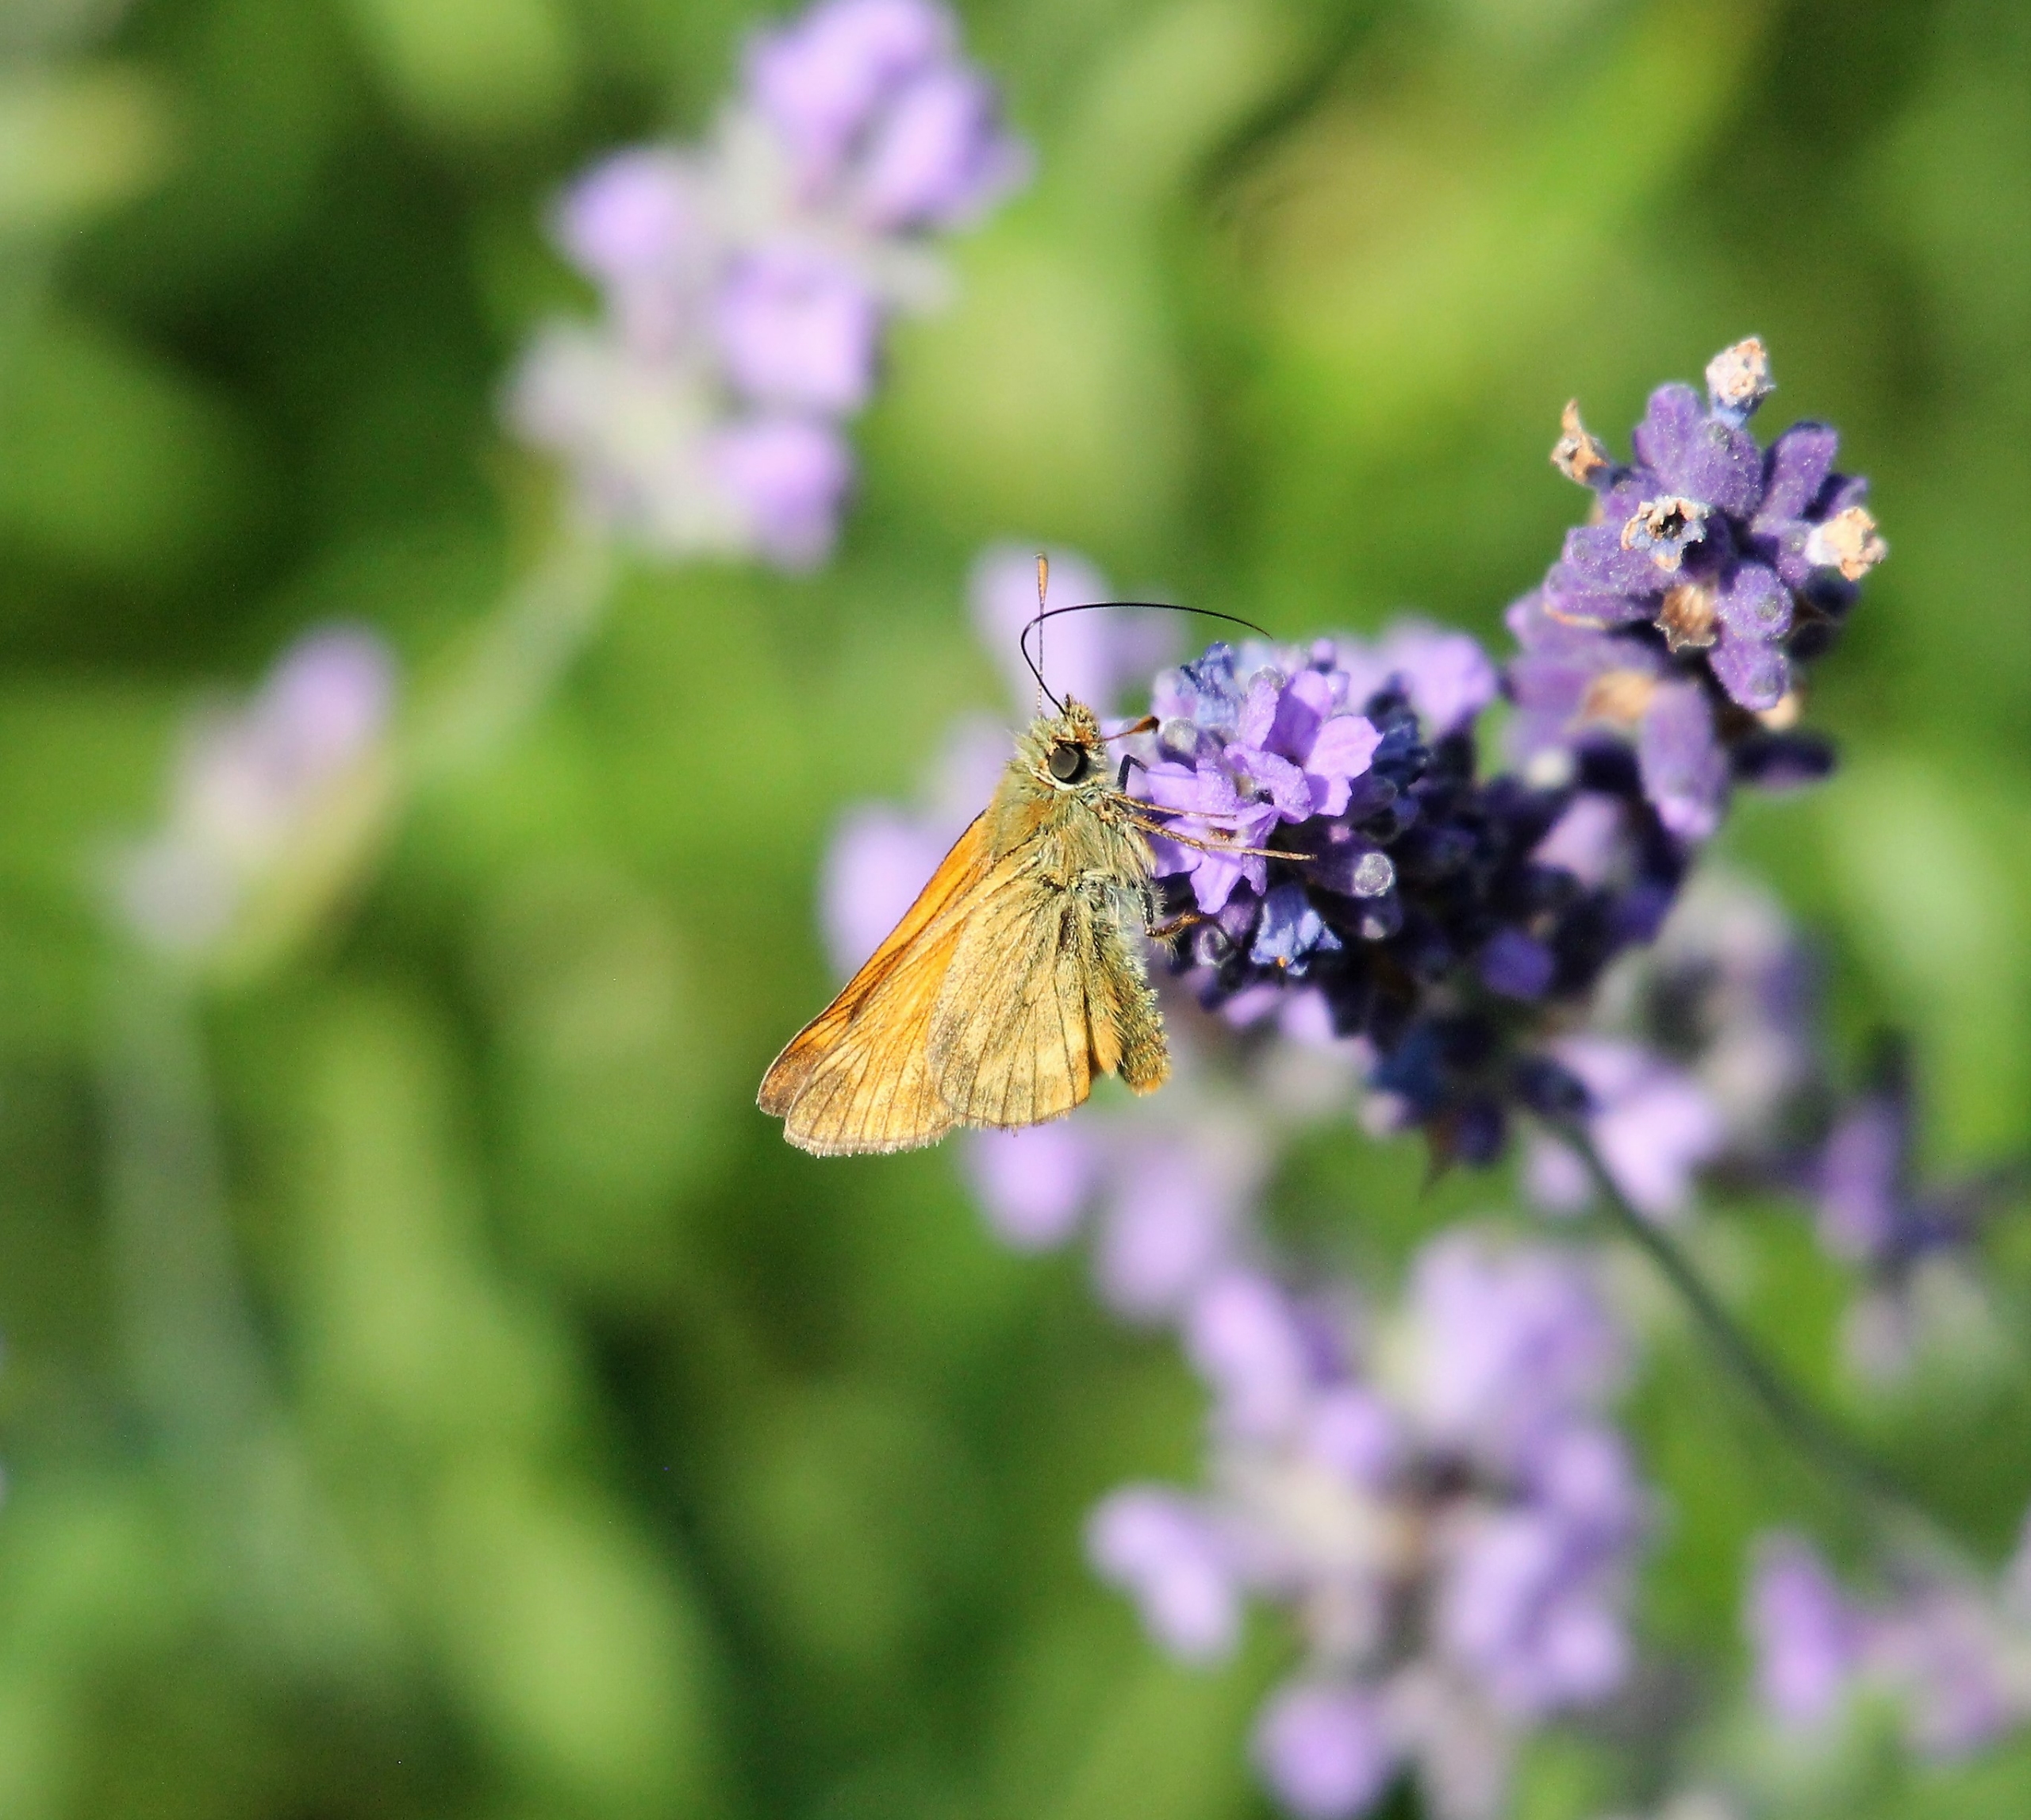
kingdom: Animalia
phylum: Arthropoda
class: Insecta
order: Lepidoptera
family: Hesperiidae
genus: Ochlodes
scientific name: Ochlodes venata
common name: Stor bredpande
